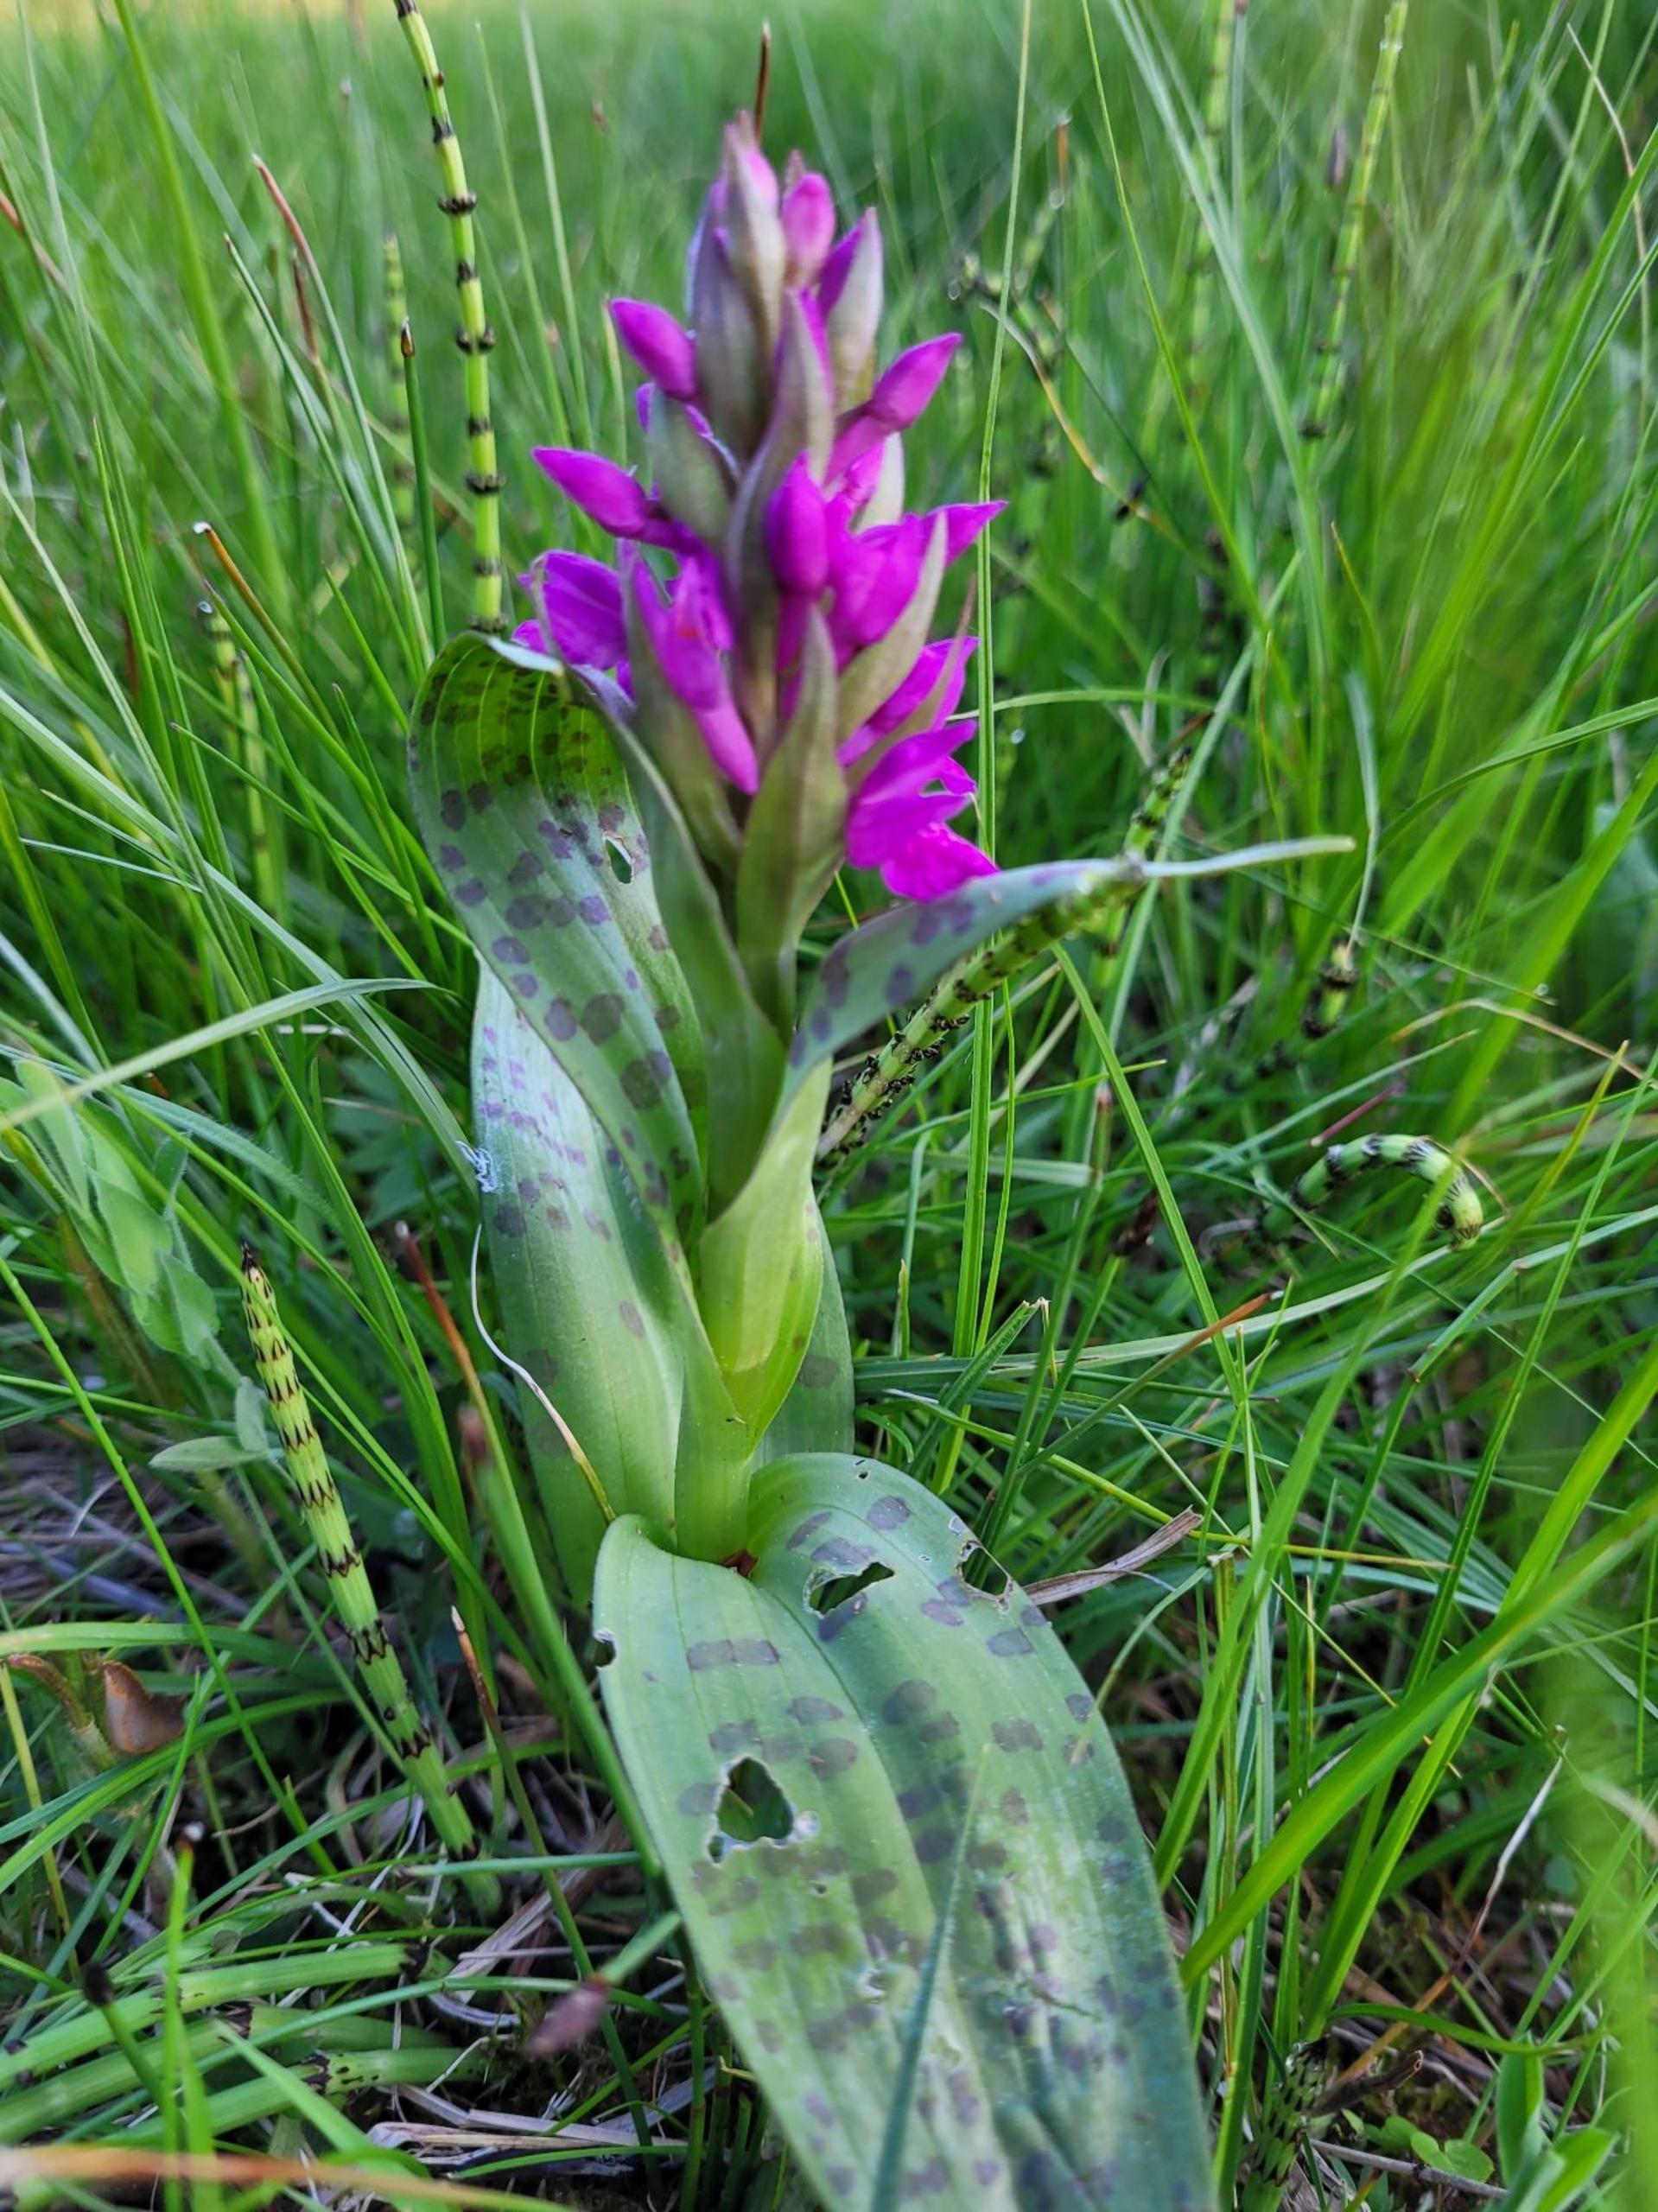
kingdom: Plantae
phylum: Tracheophyta
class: Liliopsida
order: Asparagales
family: Orchidaceae
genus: Dactylorhiza
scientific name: Dactylorhiza majalis
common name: Maj-gøgeurt
